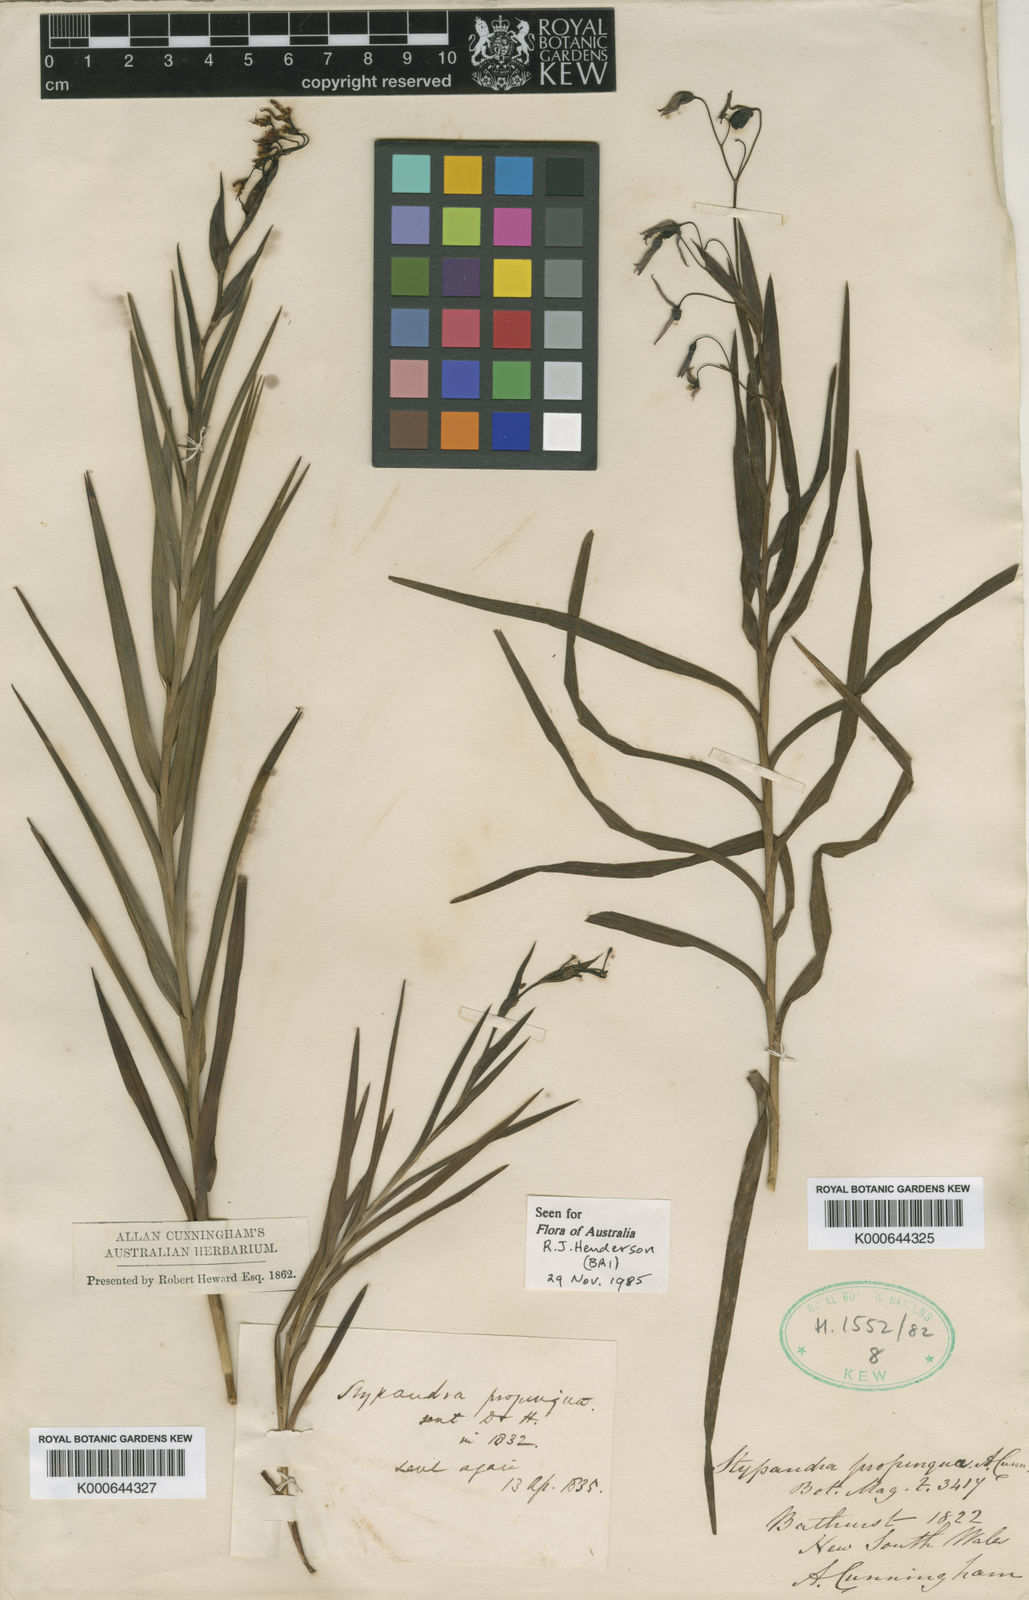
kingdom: Plantae
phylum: Tracheophyta
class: Liliopsida
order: Asparagales
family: Asphodelaceae
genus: Stypandra
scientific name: Stypandra glauca
